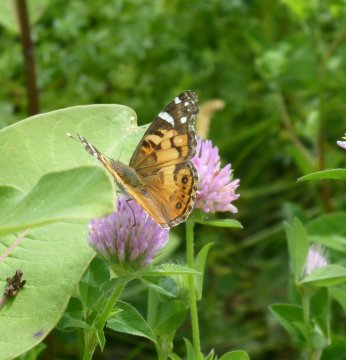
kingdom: Animalia
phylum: Arthropoda
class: Insecta
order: Lepidoptera
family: Nymphalidae
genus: Vanessa
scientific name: Vanessa virginiensis
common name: American Lady
